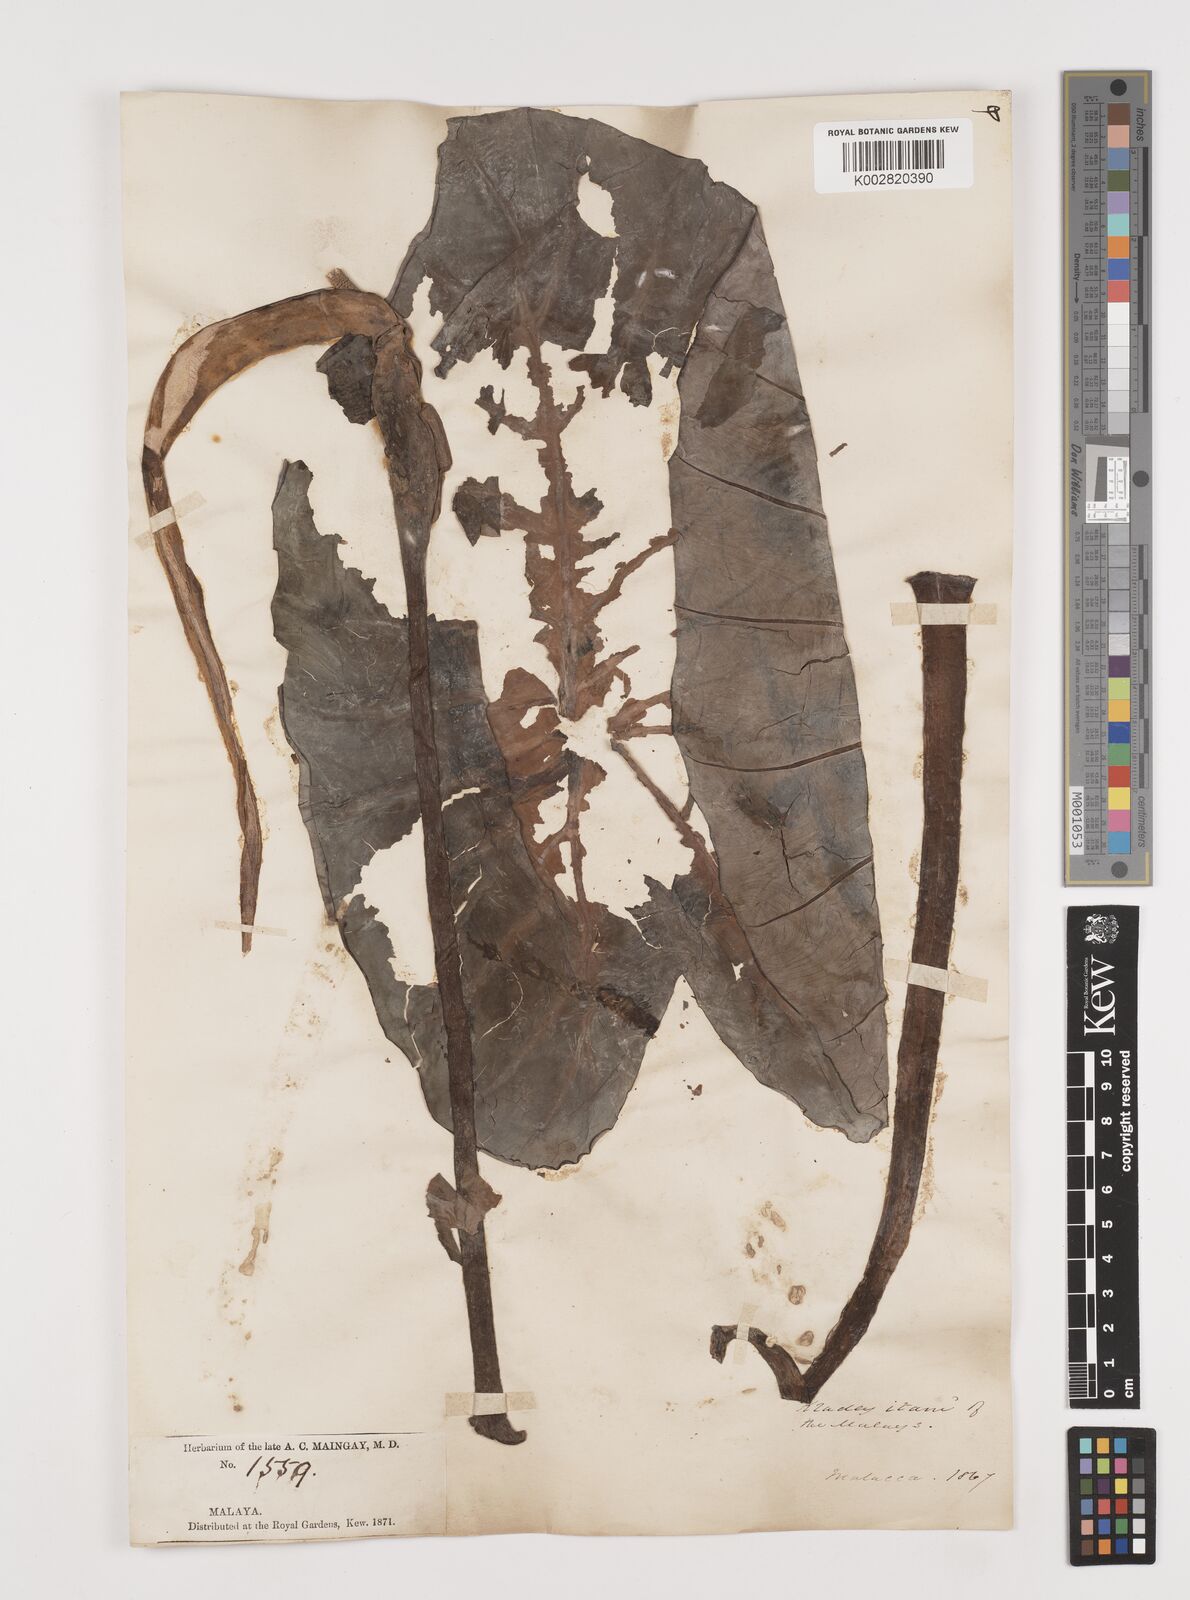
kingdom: Plantae
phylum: Tracheophyta
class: Liliopsida
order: Alismatales
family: Araceae
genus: Colocasia
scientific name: Colocasia esculenta
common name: Taro
